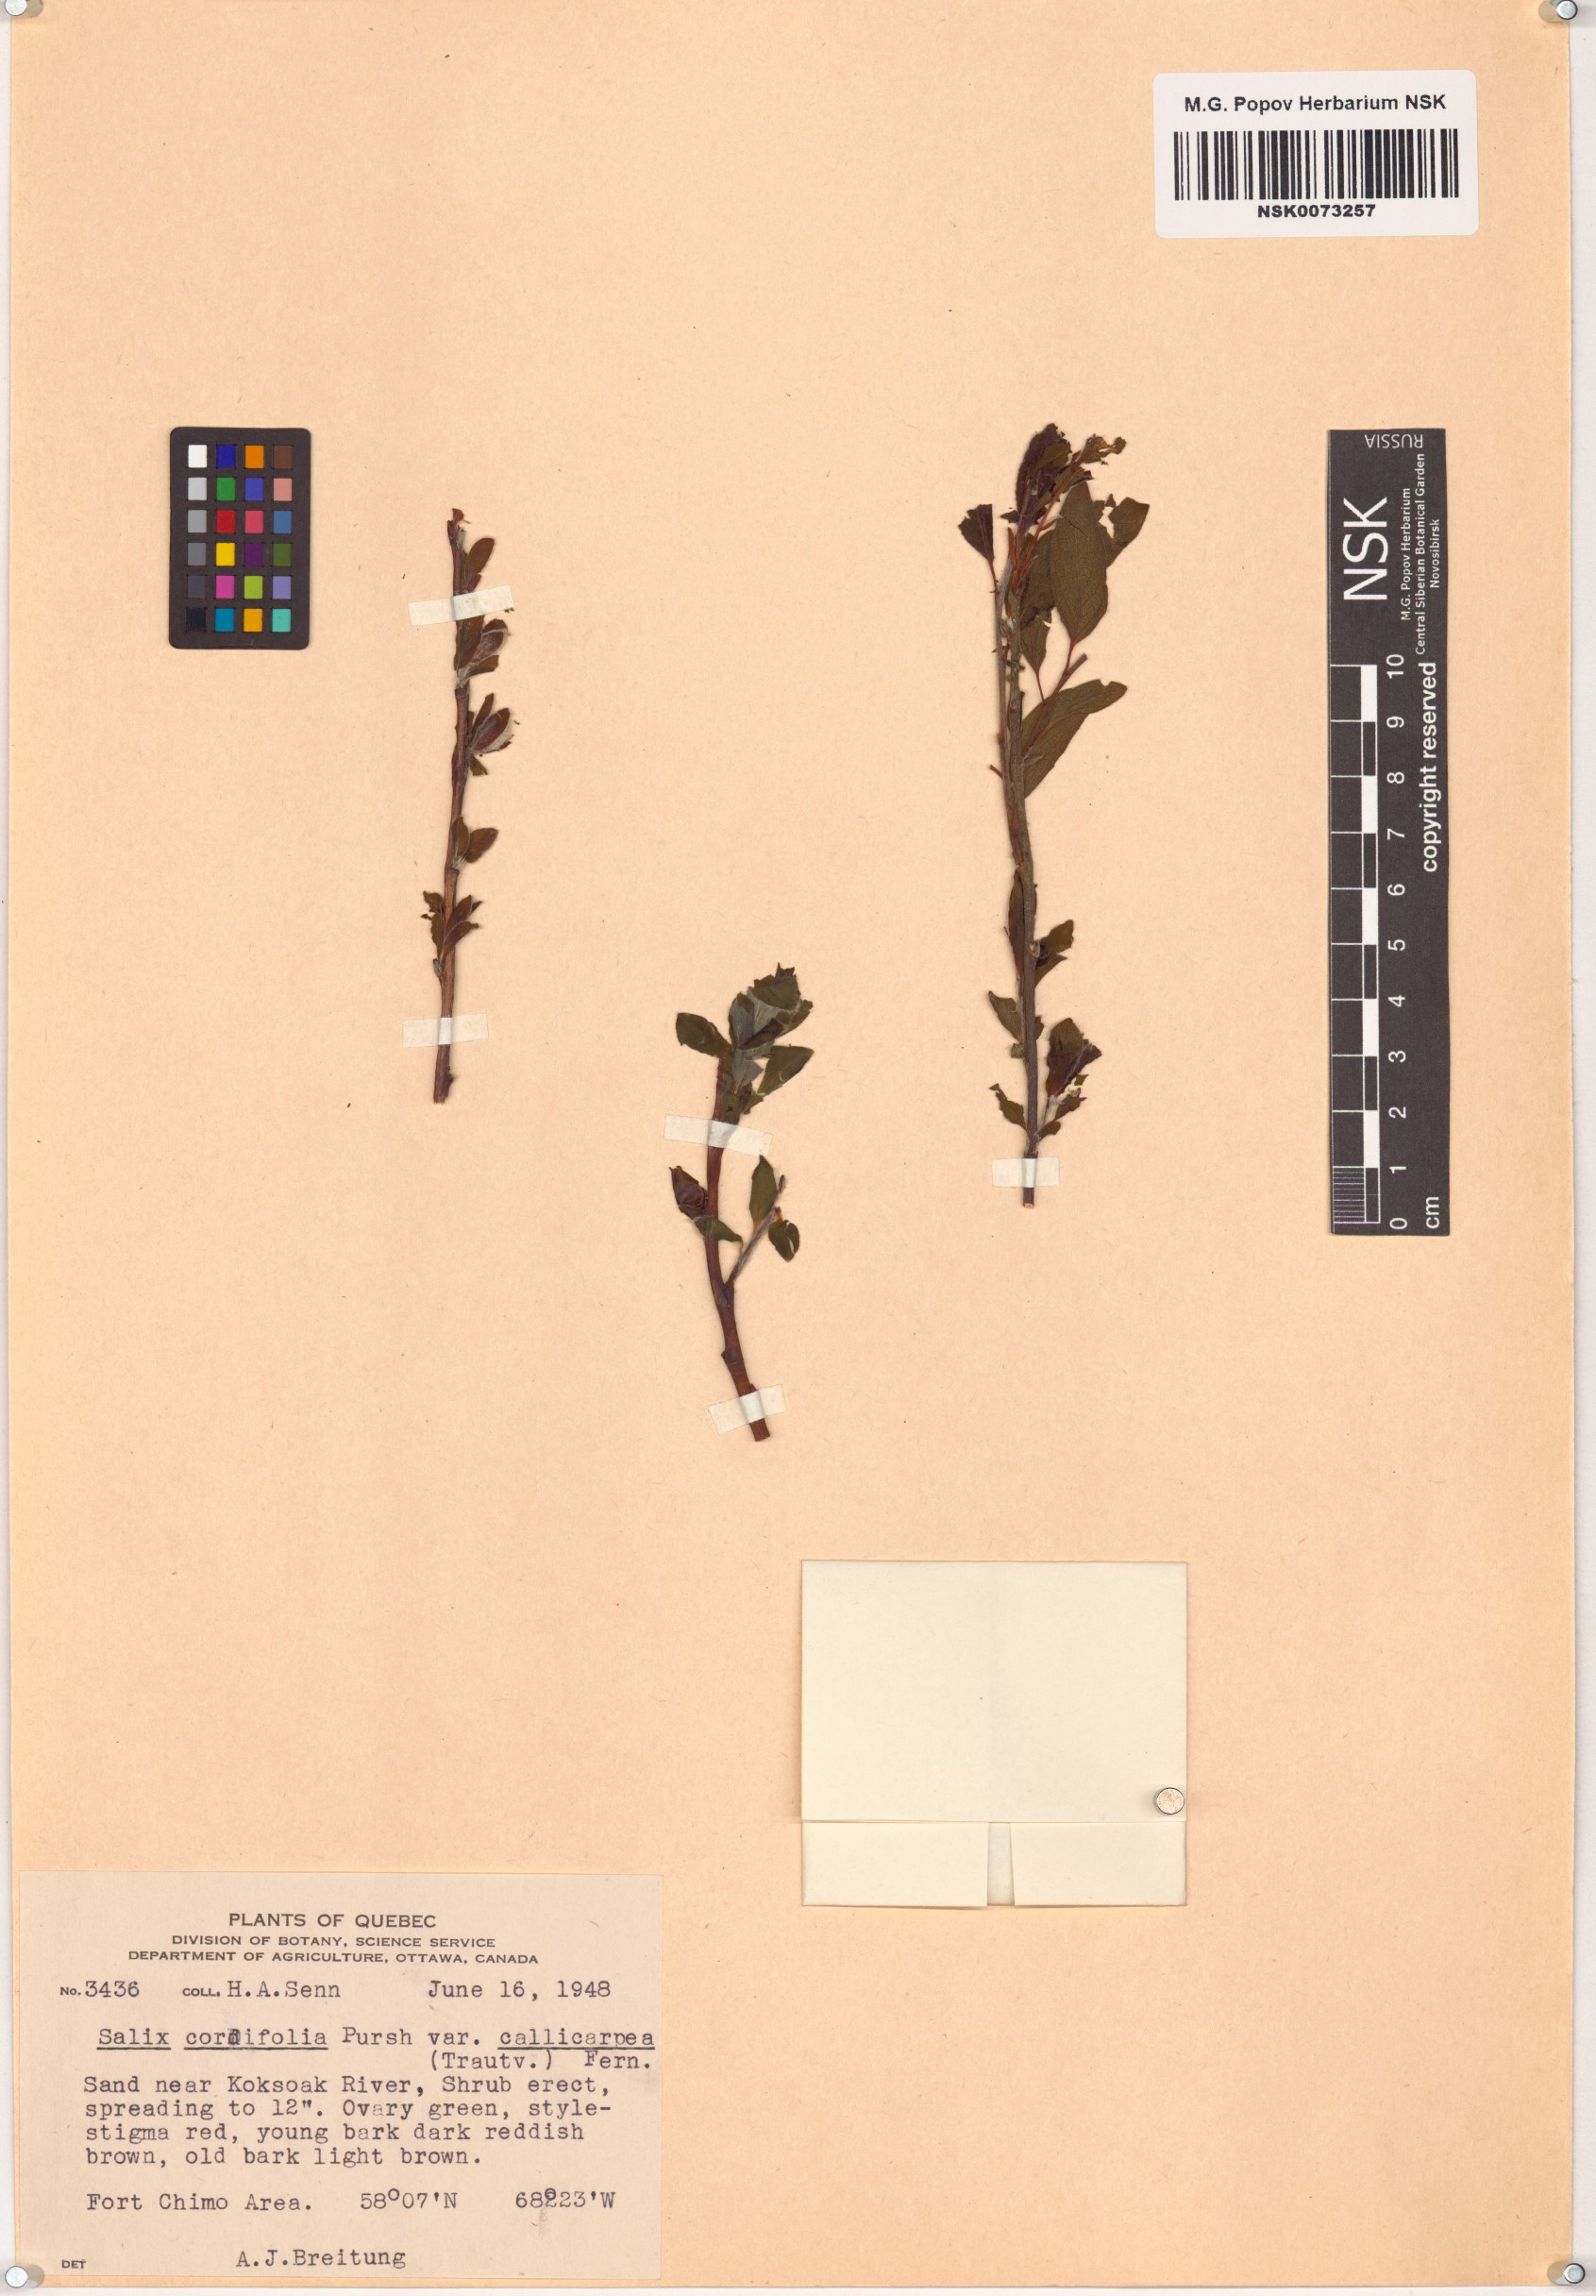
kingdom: Plantae
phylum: Tracheophyta
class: Magnoliopsida
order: Malpighiales
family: Salicaceae
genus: Salix
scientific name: Salix glauca
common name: Glaucous willow
